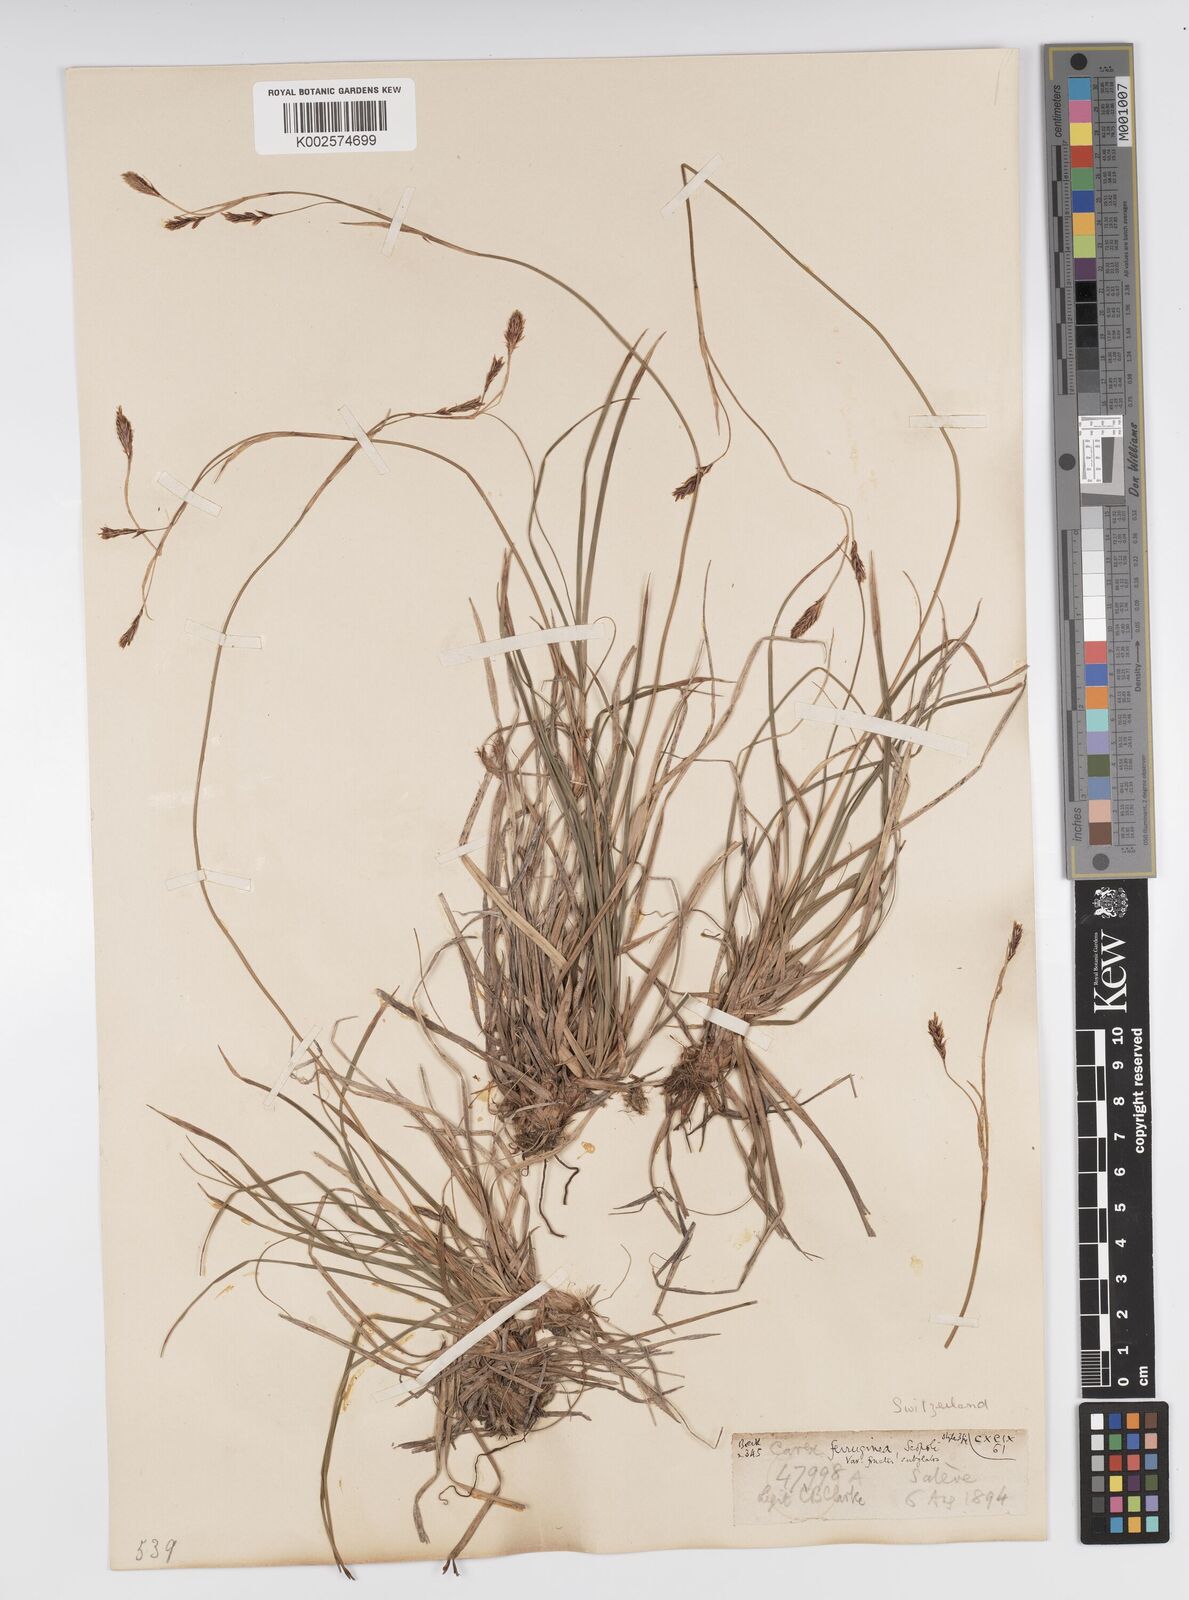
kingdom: Plantae
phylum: Tracheophyta
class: Liliopsida
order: Poales
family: Cyperaceae
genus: Carex
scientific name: Carex ferruginea
